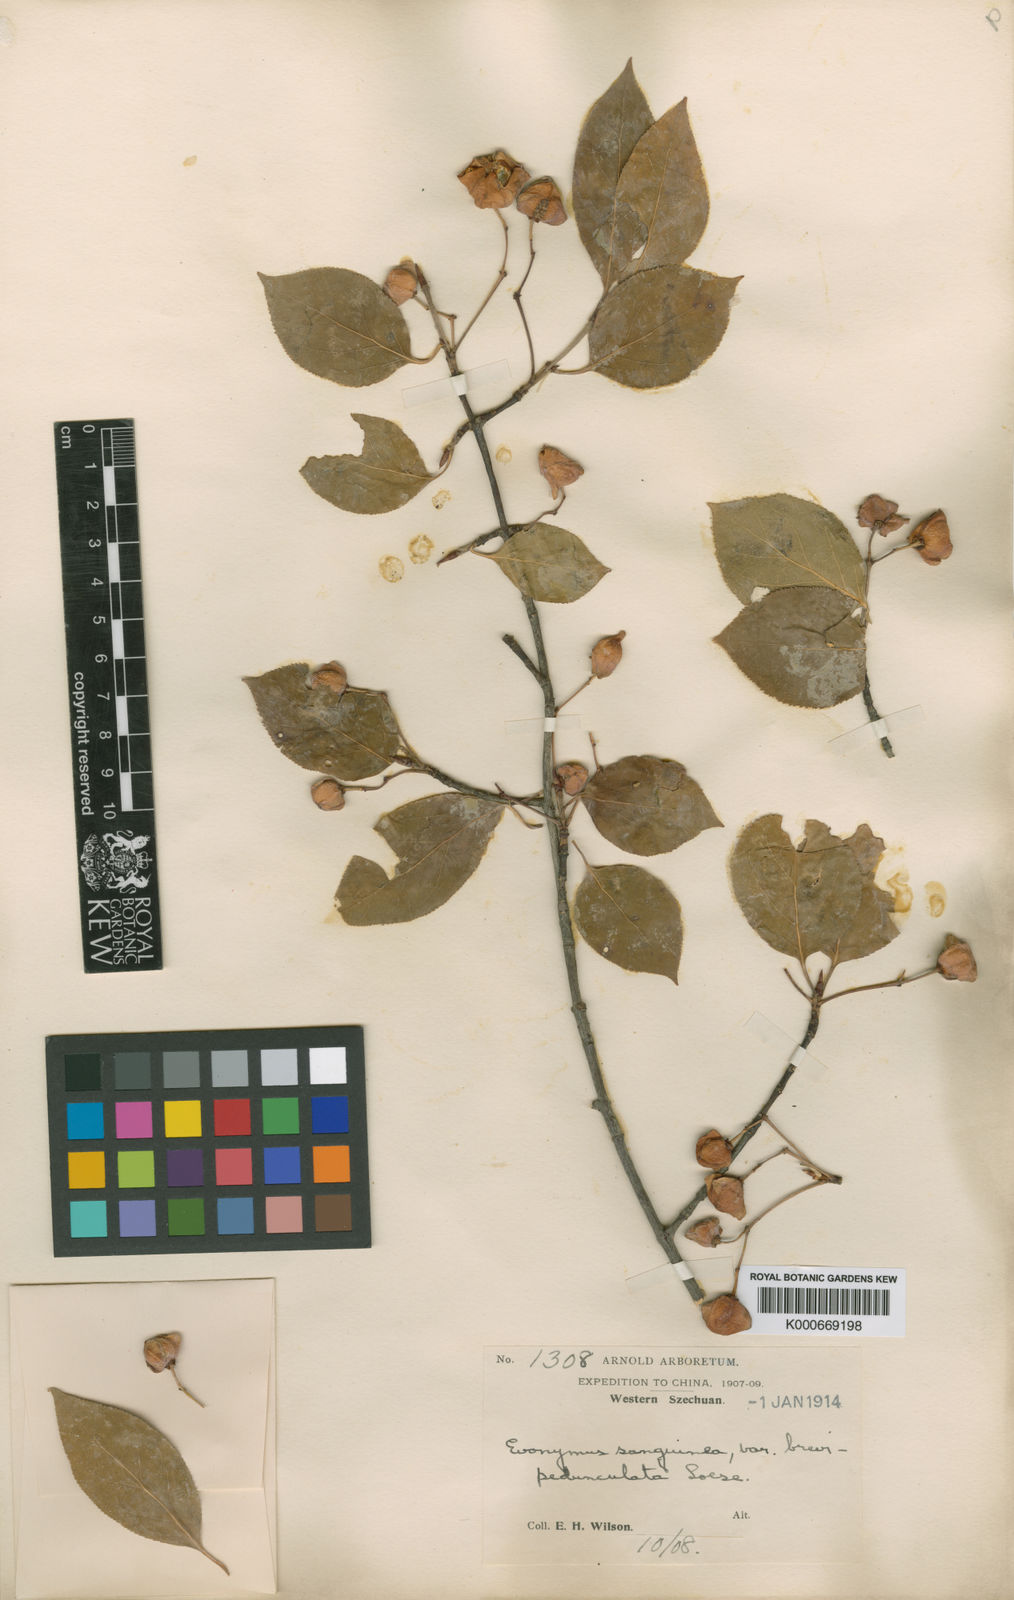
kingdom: Plantae
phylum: Tracheophyta
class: Magnoliopsida
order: Celastrales
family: Celastraceae
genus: Euonymus
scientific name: Euonymus sanguineus
